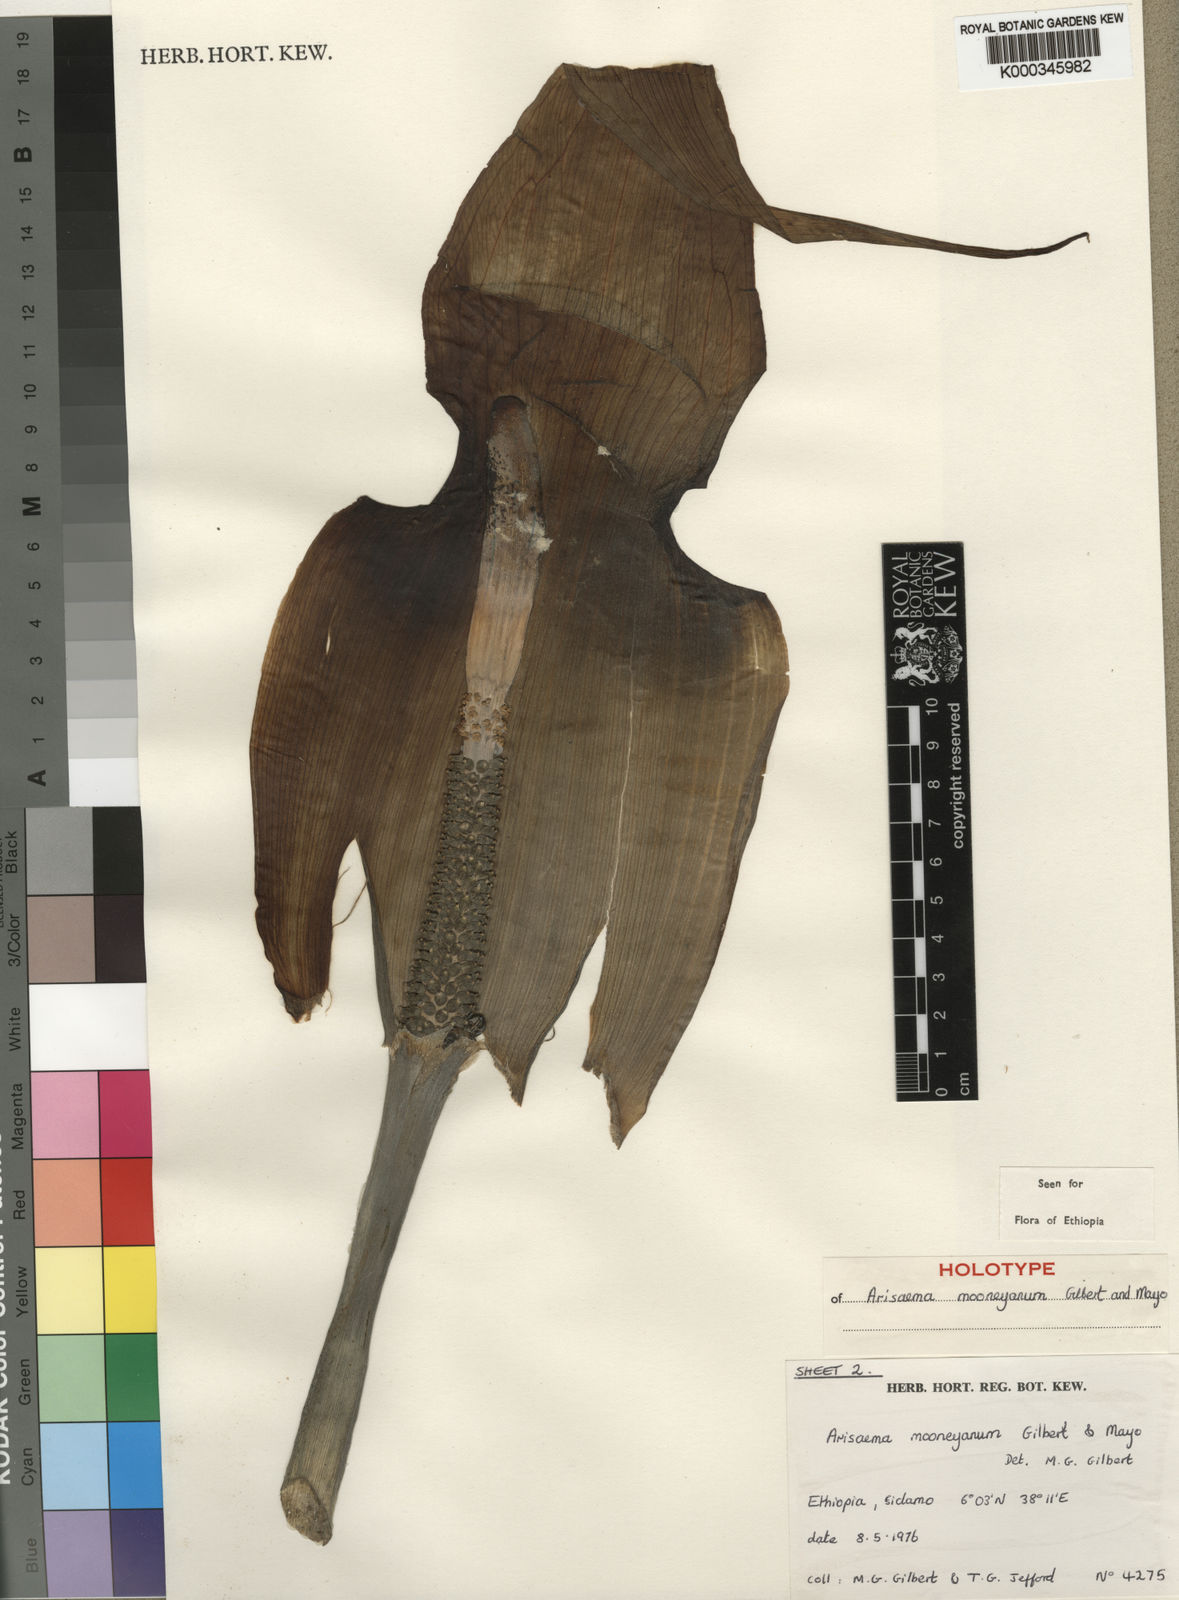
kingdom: Plantae
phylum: Tracheophyta
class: Liliopsida
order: Alismatales
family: Araceae
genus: Arisaema
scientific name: Arisaema mooneyanum
